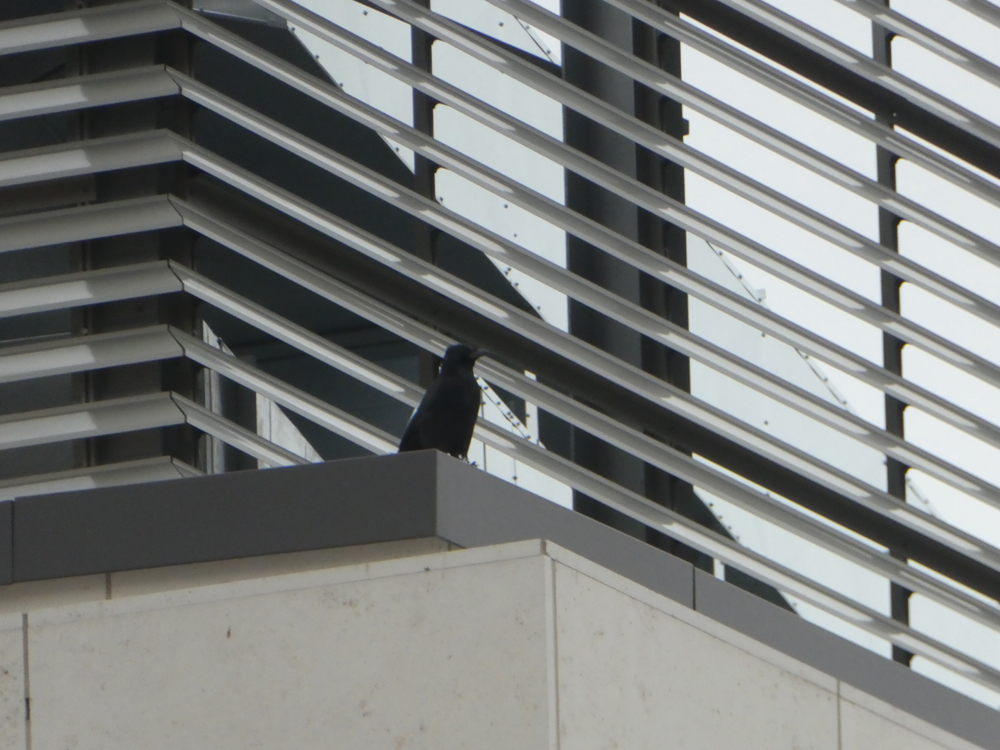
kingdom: Animalia
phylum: Chordata
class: Aves
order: Passeriformes
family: Corvidae
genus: Corvus
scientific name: Corvus corone
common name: Carrion crow
